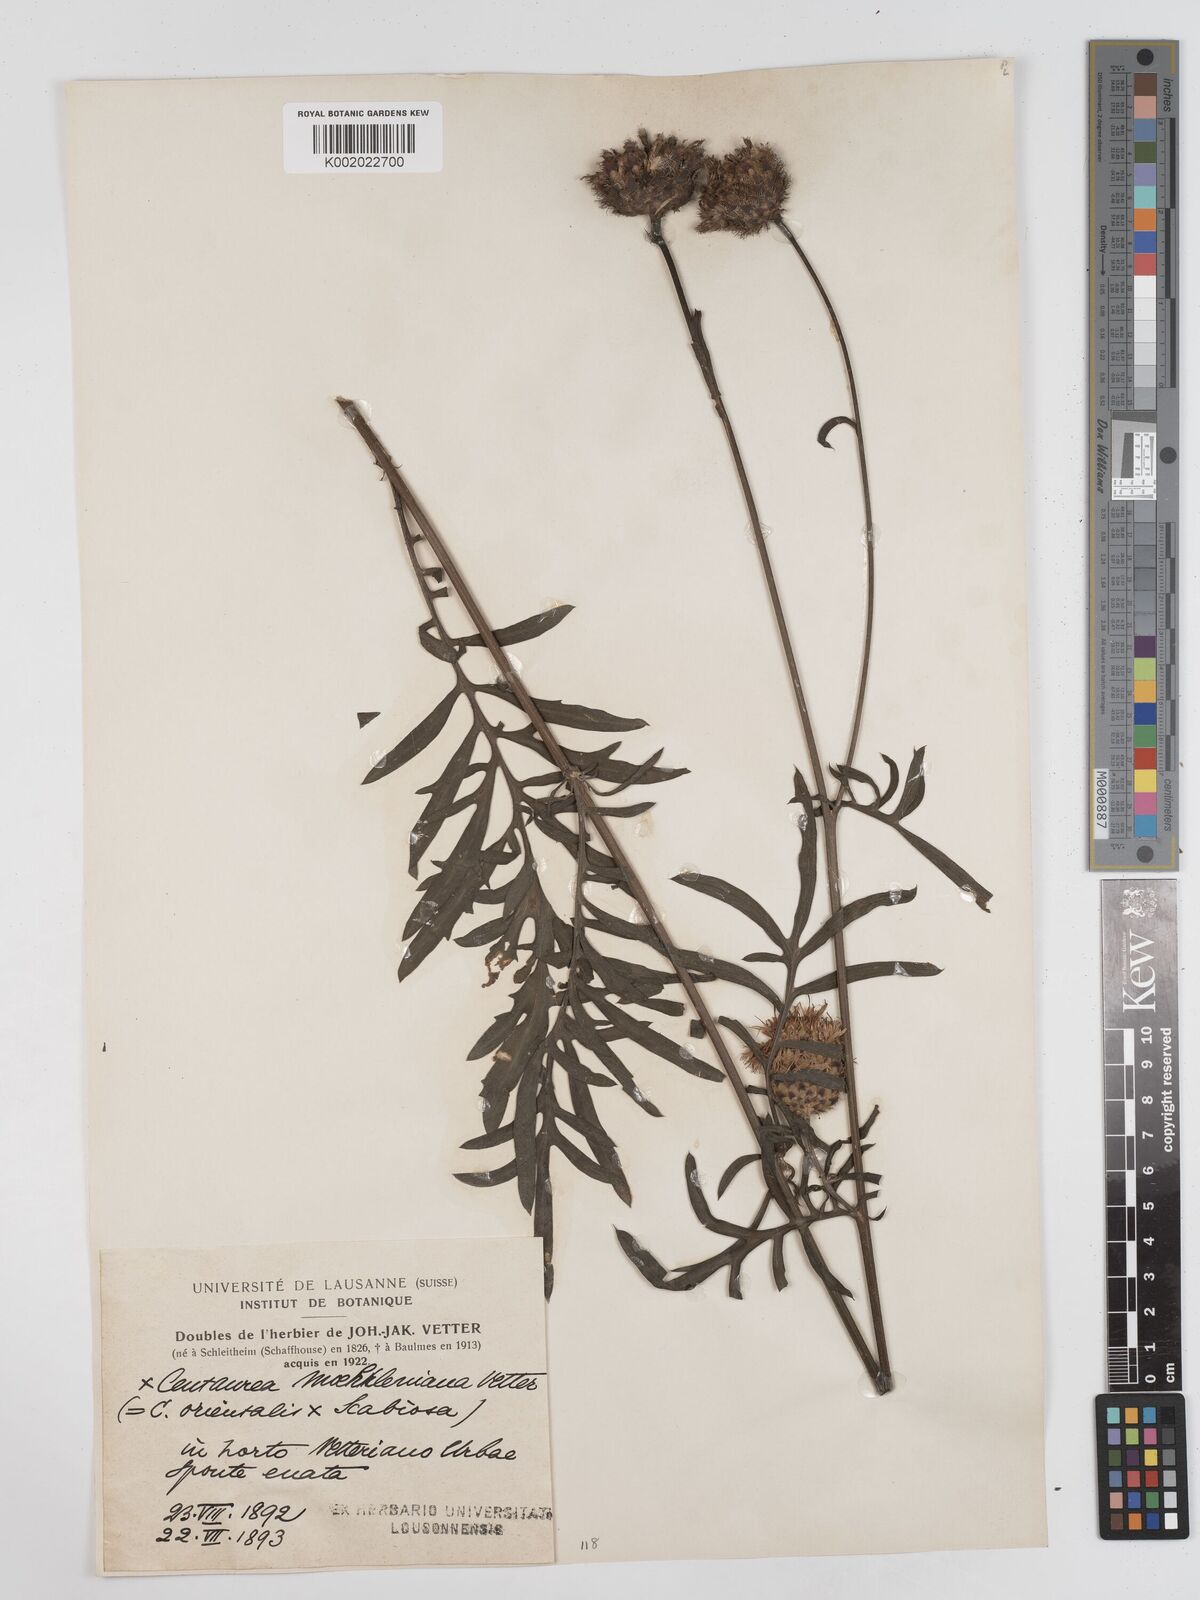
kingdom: Plantae
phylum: Tracheophyta
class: Magnoliopsida
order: Asterales
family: Asteraceae
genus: Centaurea
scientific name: Centaurea moehrleniana
